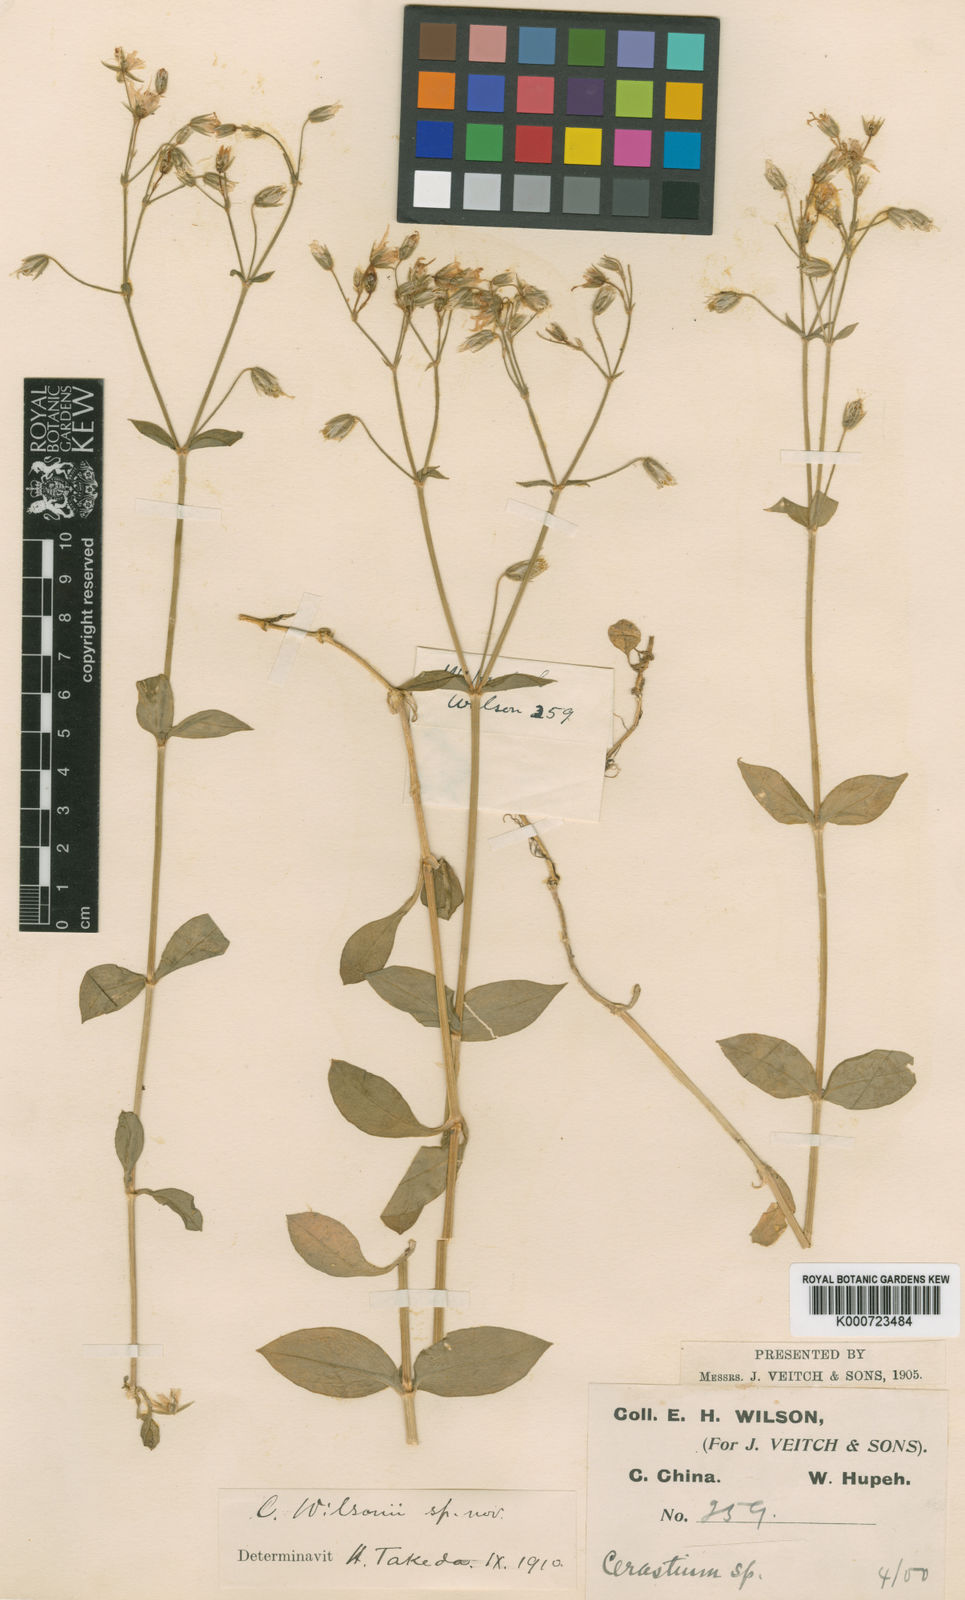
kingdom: Plantae
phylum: Tracheophyta
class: Magnoliopsida
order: Caryophyllales
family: Caryophyllaceae
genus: Cerastium
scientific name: Cerastium wilsonii
